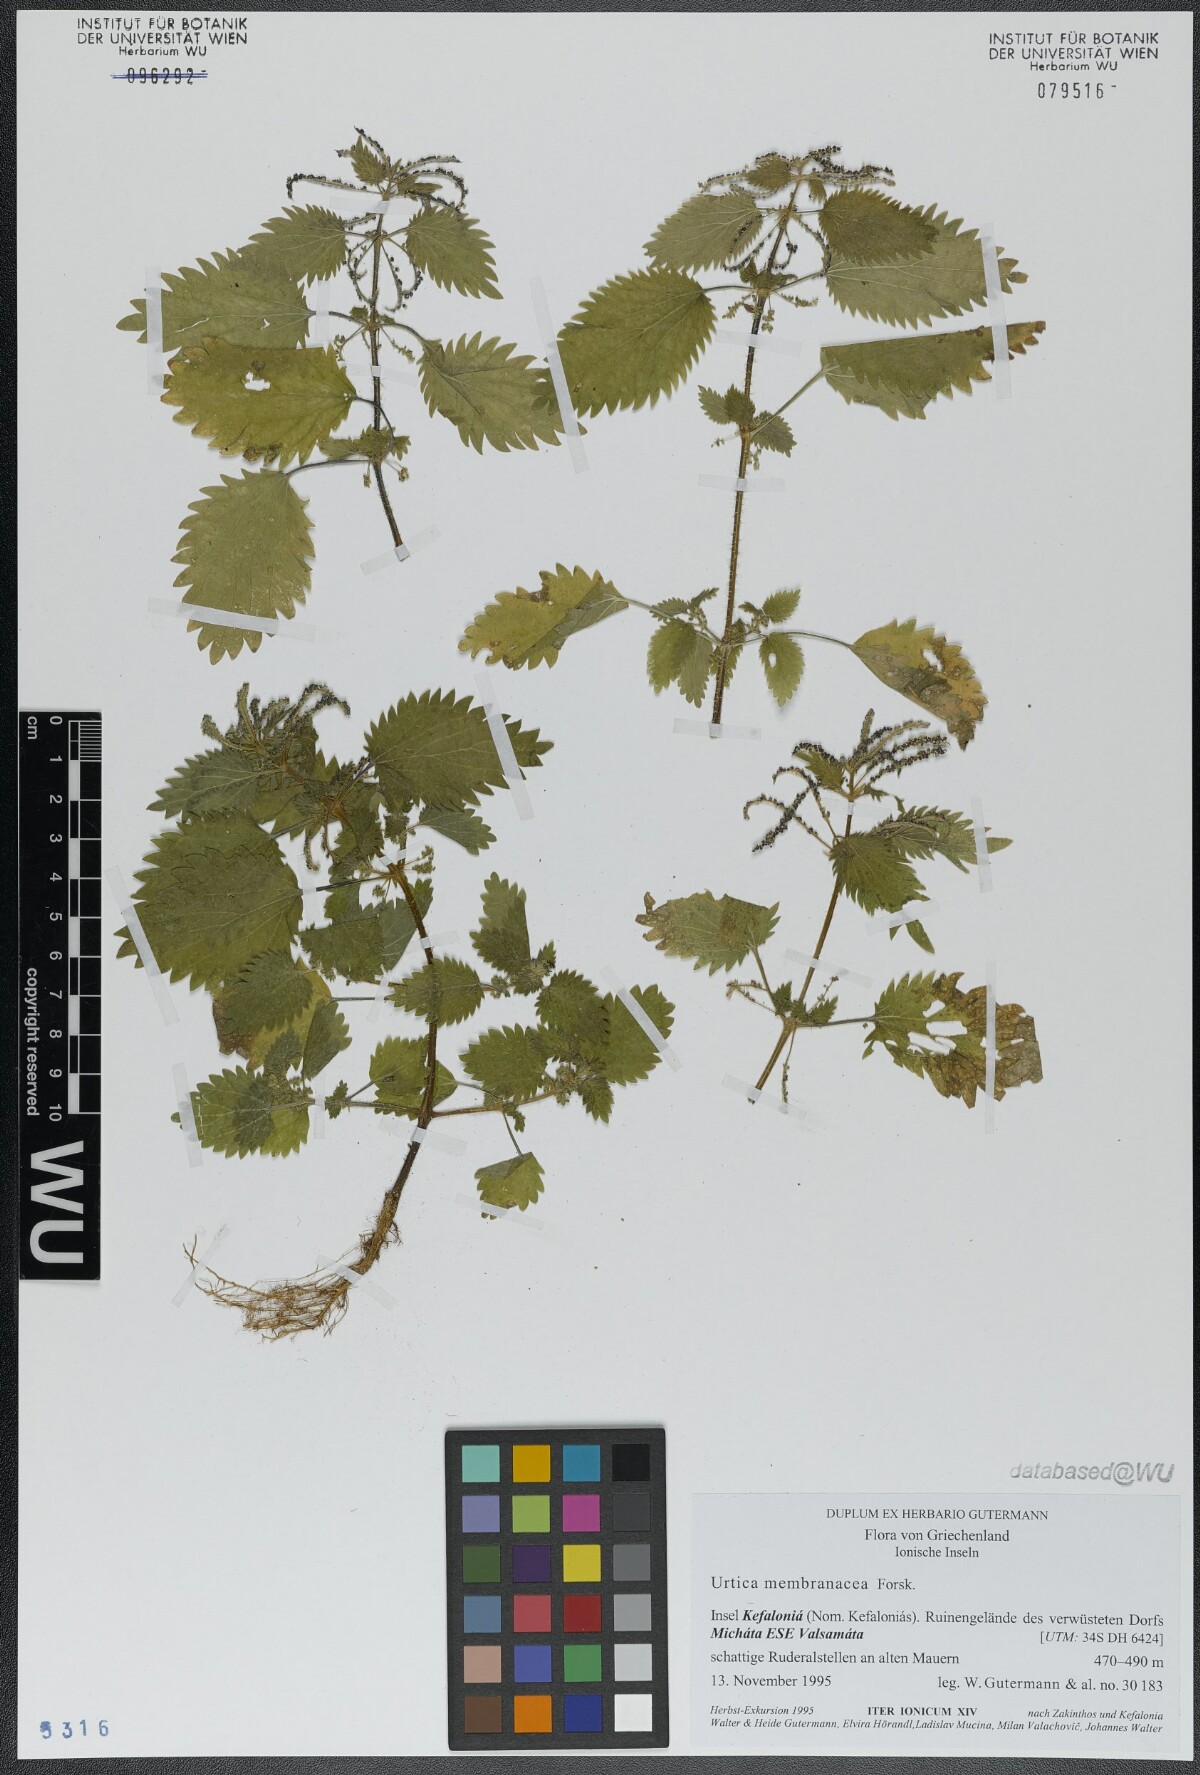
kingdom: Plantae
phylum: Tracheophyta
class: Magnoliopsida
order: Rosales
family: Urticaceae
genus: Urtica
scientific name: Urtica membranacea
